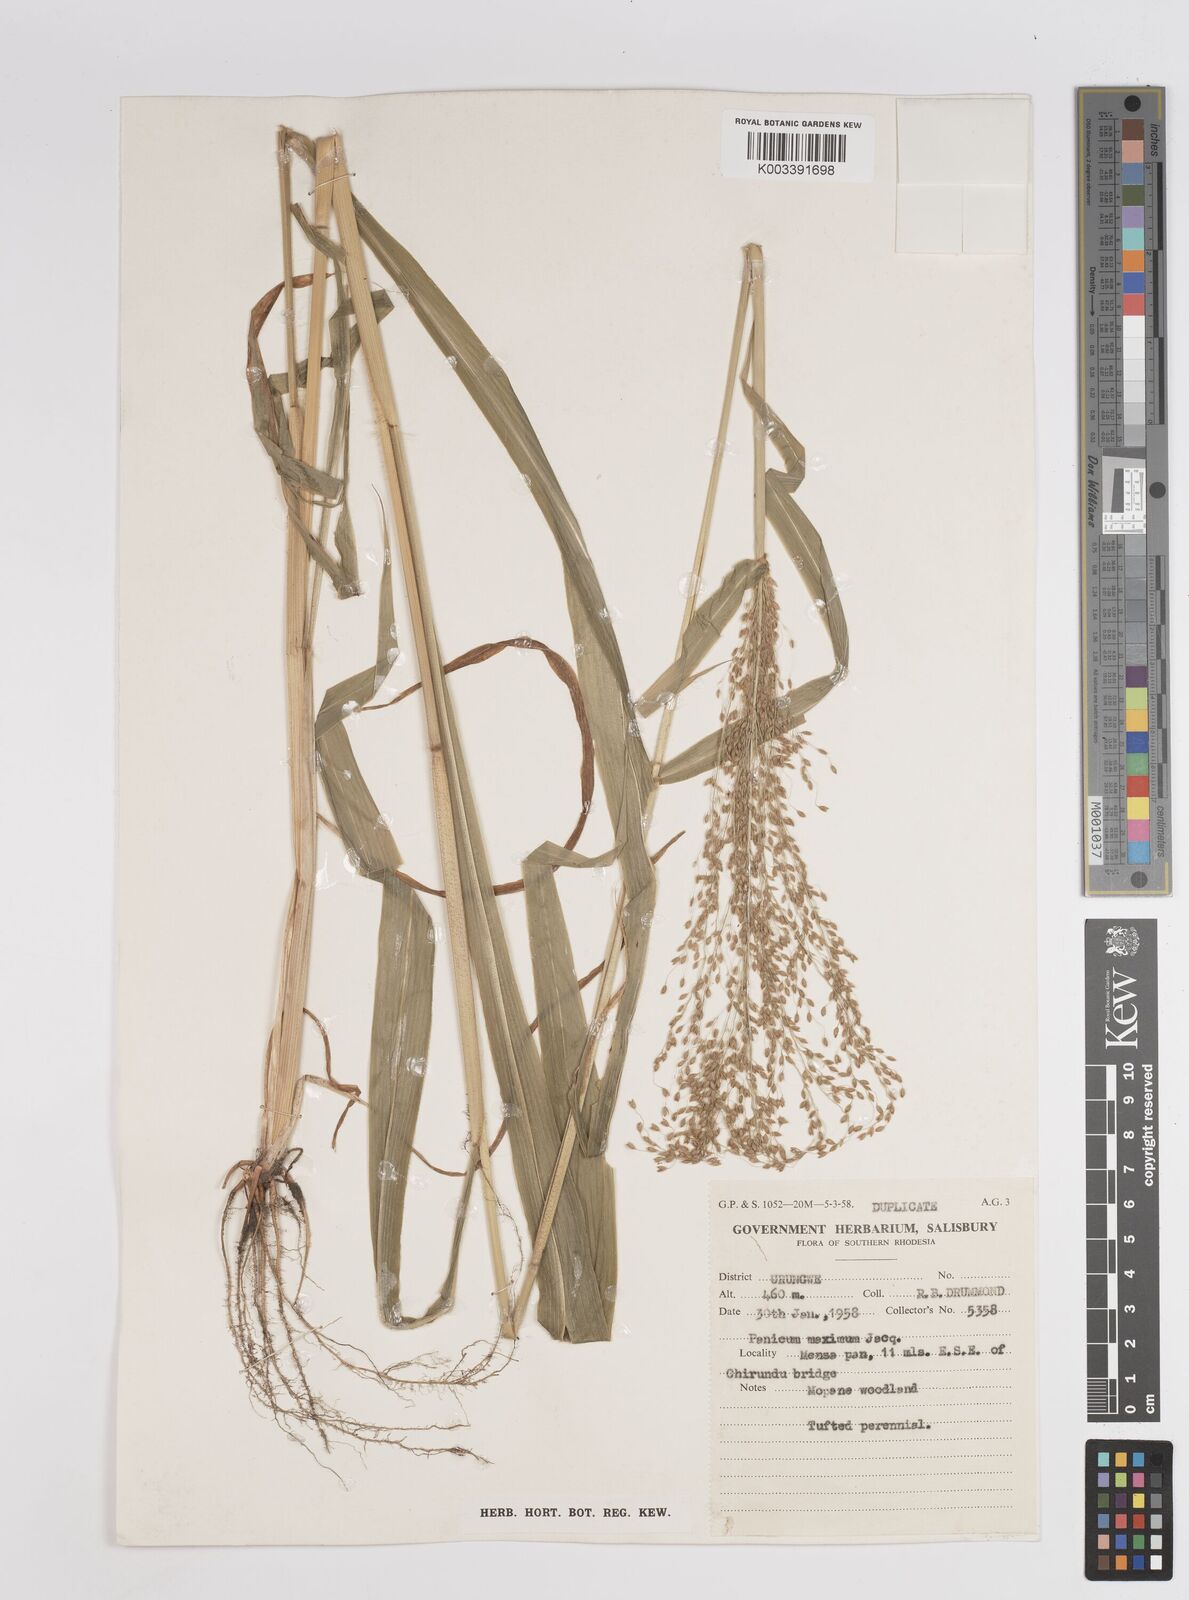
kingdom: Plantae
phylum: Tracheophyta
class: Liliopsida
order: Poales
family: Poaceae
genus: Megathyrsus
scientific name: Megathyrsus maximus
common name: Guineagrass
